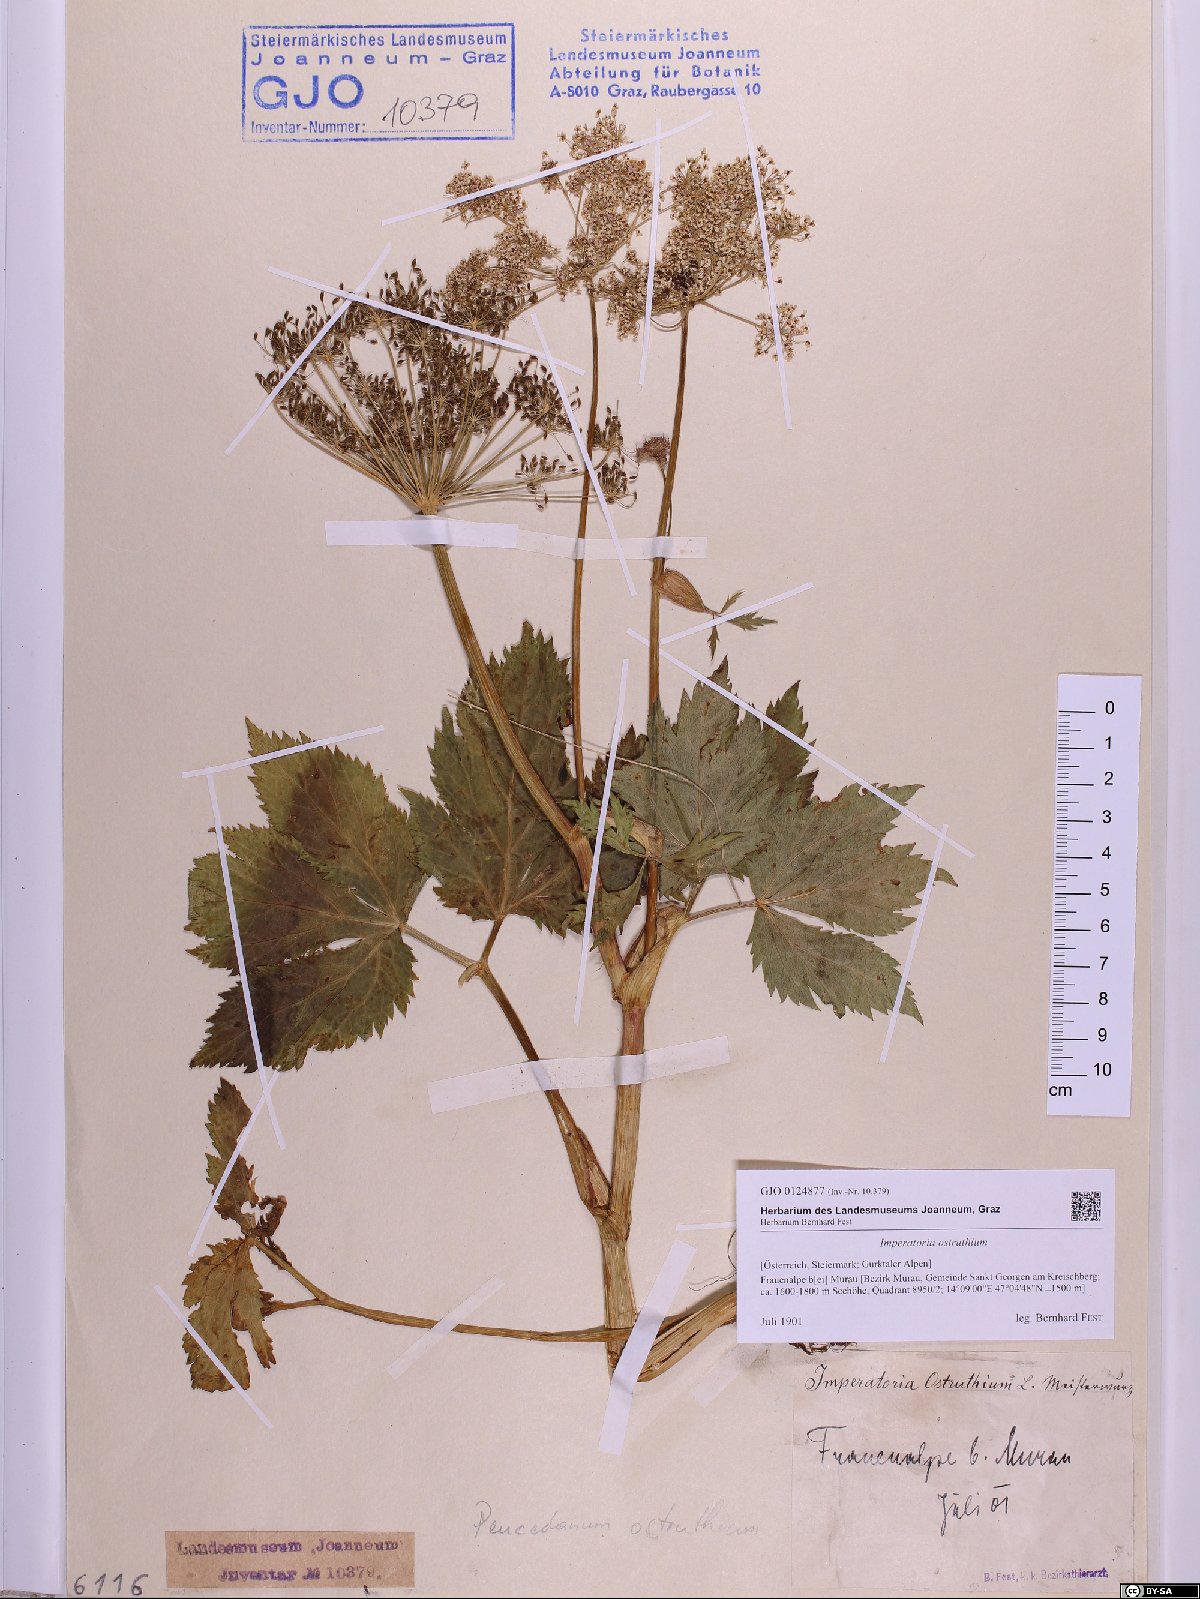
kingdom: Plantae
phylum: Tracheophyta
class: Magnoliopsida
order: Apiales
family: Apiaceae
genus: Imperatoria
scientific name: Imperatoria ostruthium
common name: Masterwort
